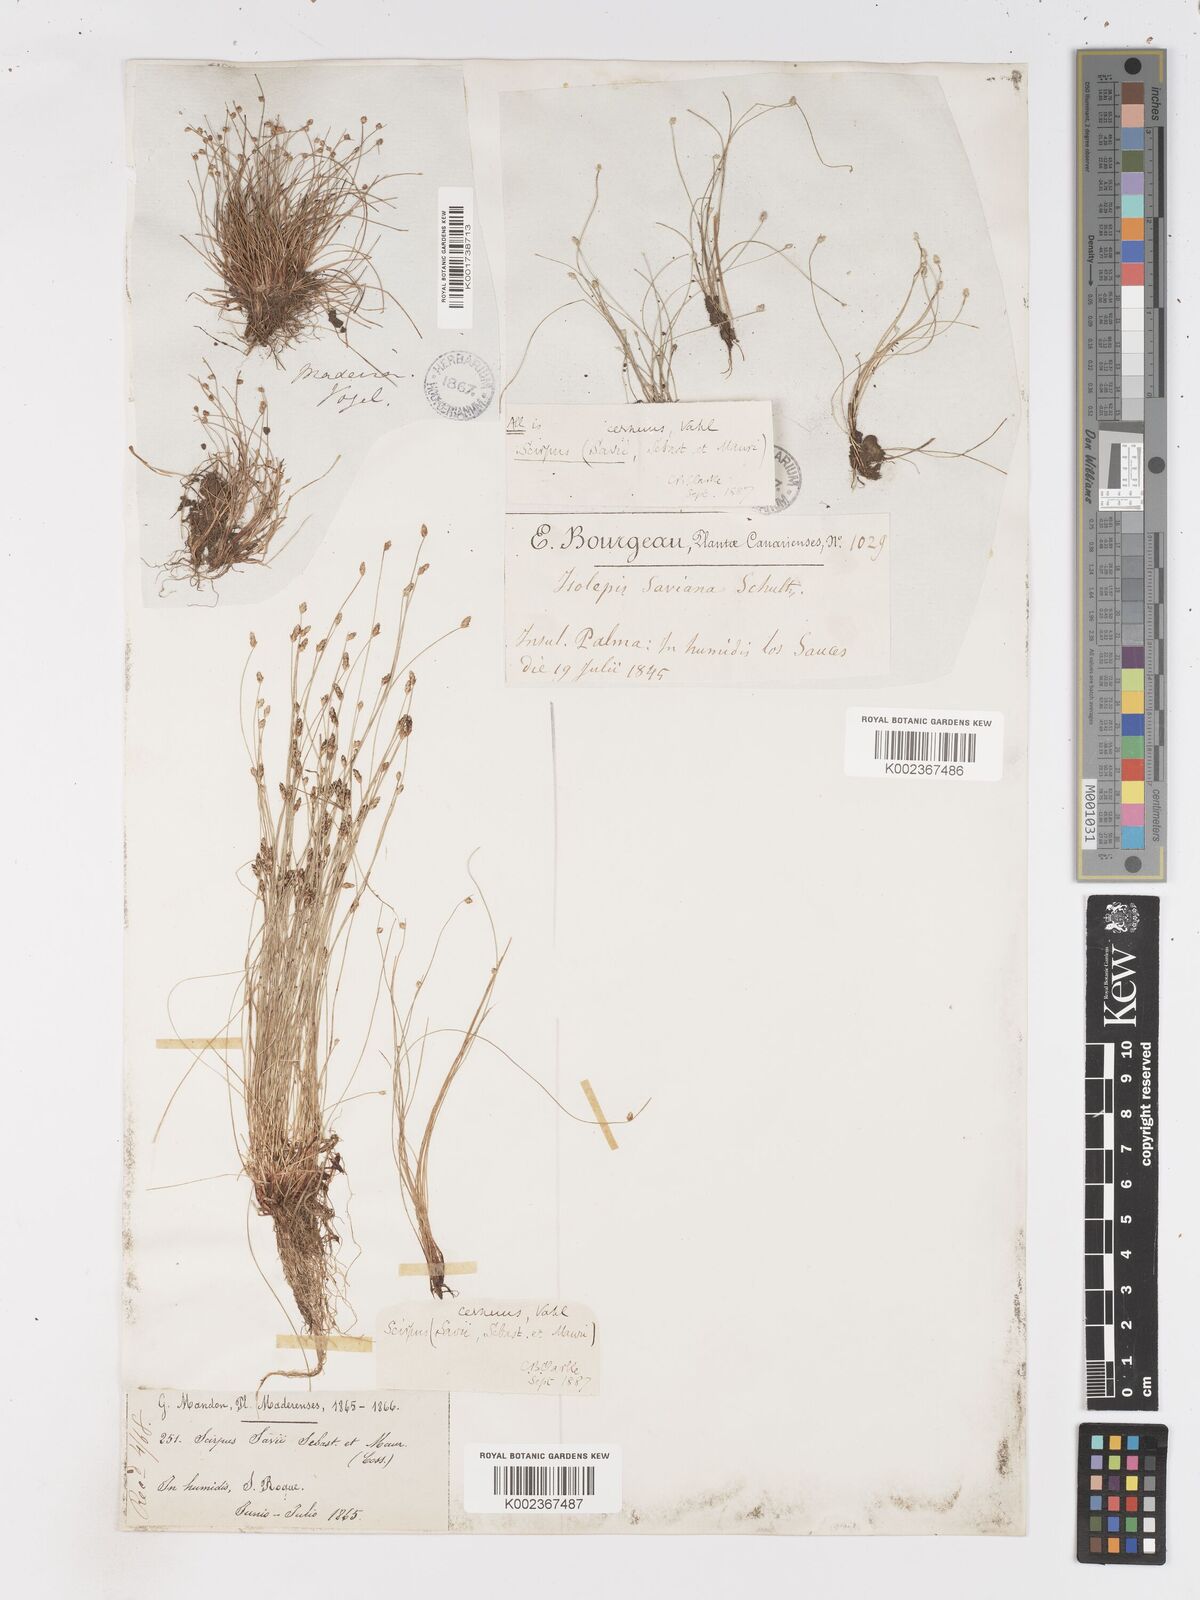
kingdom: Plantae
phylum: Tracheophyta
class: Liliopsida
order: Poales
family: Cyperaceae
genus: Isolepis
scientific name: Isolepis cernua
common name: Slender club-rush
